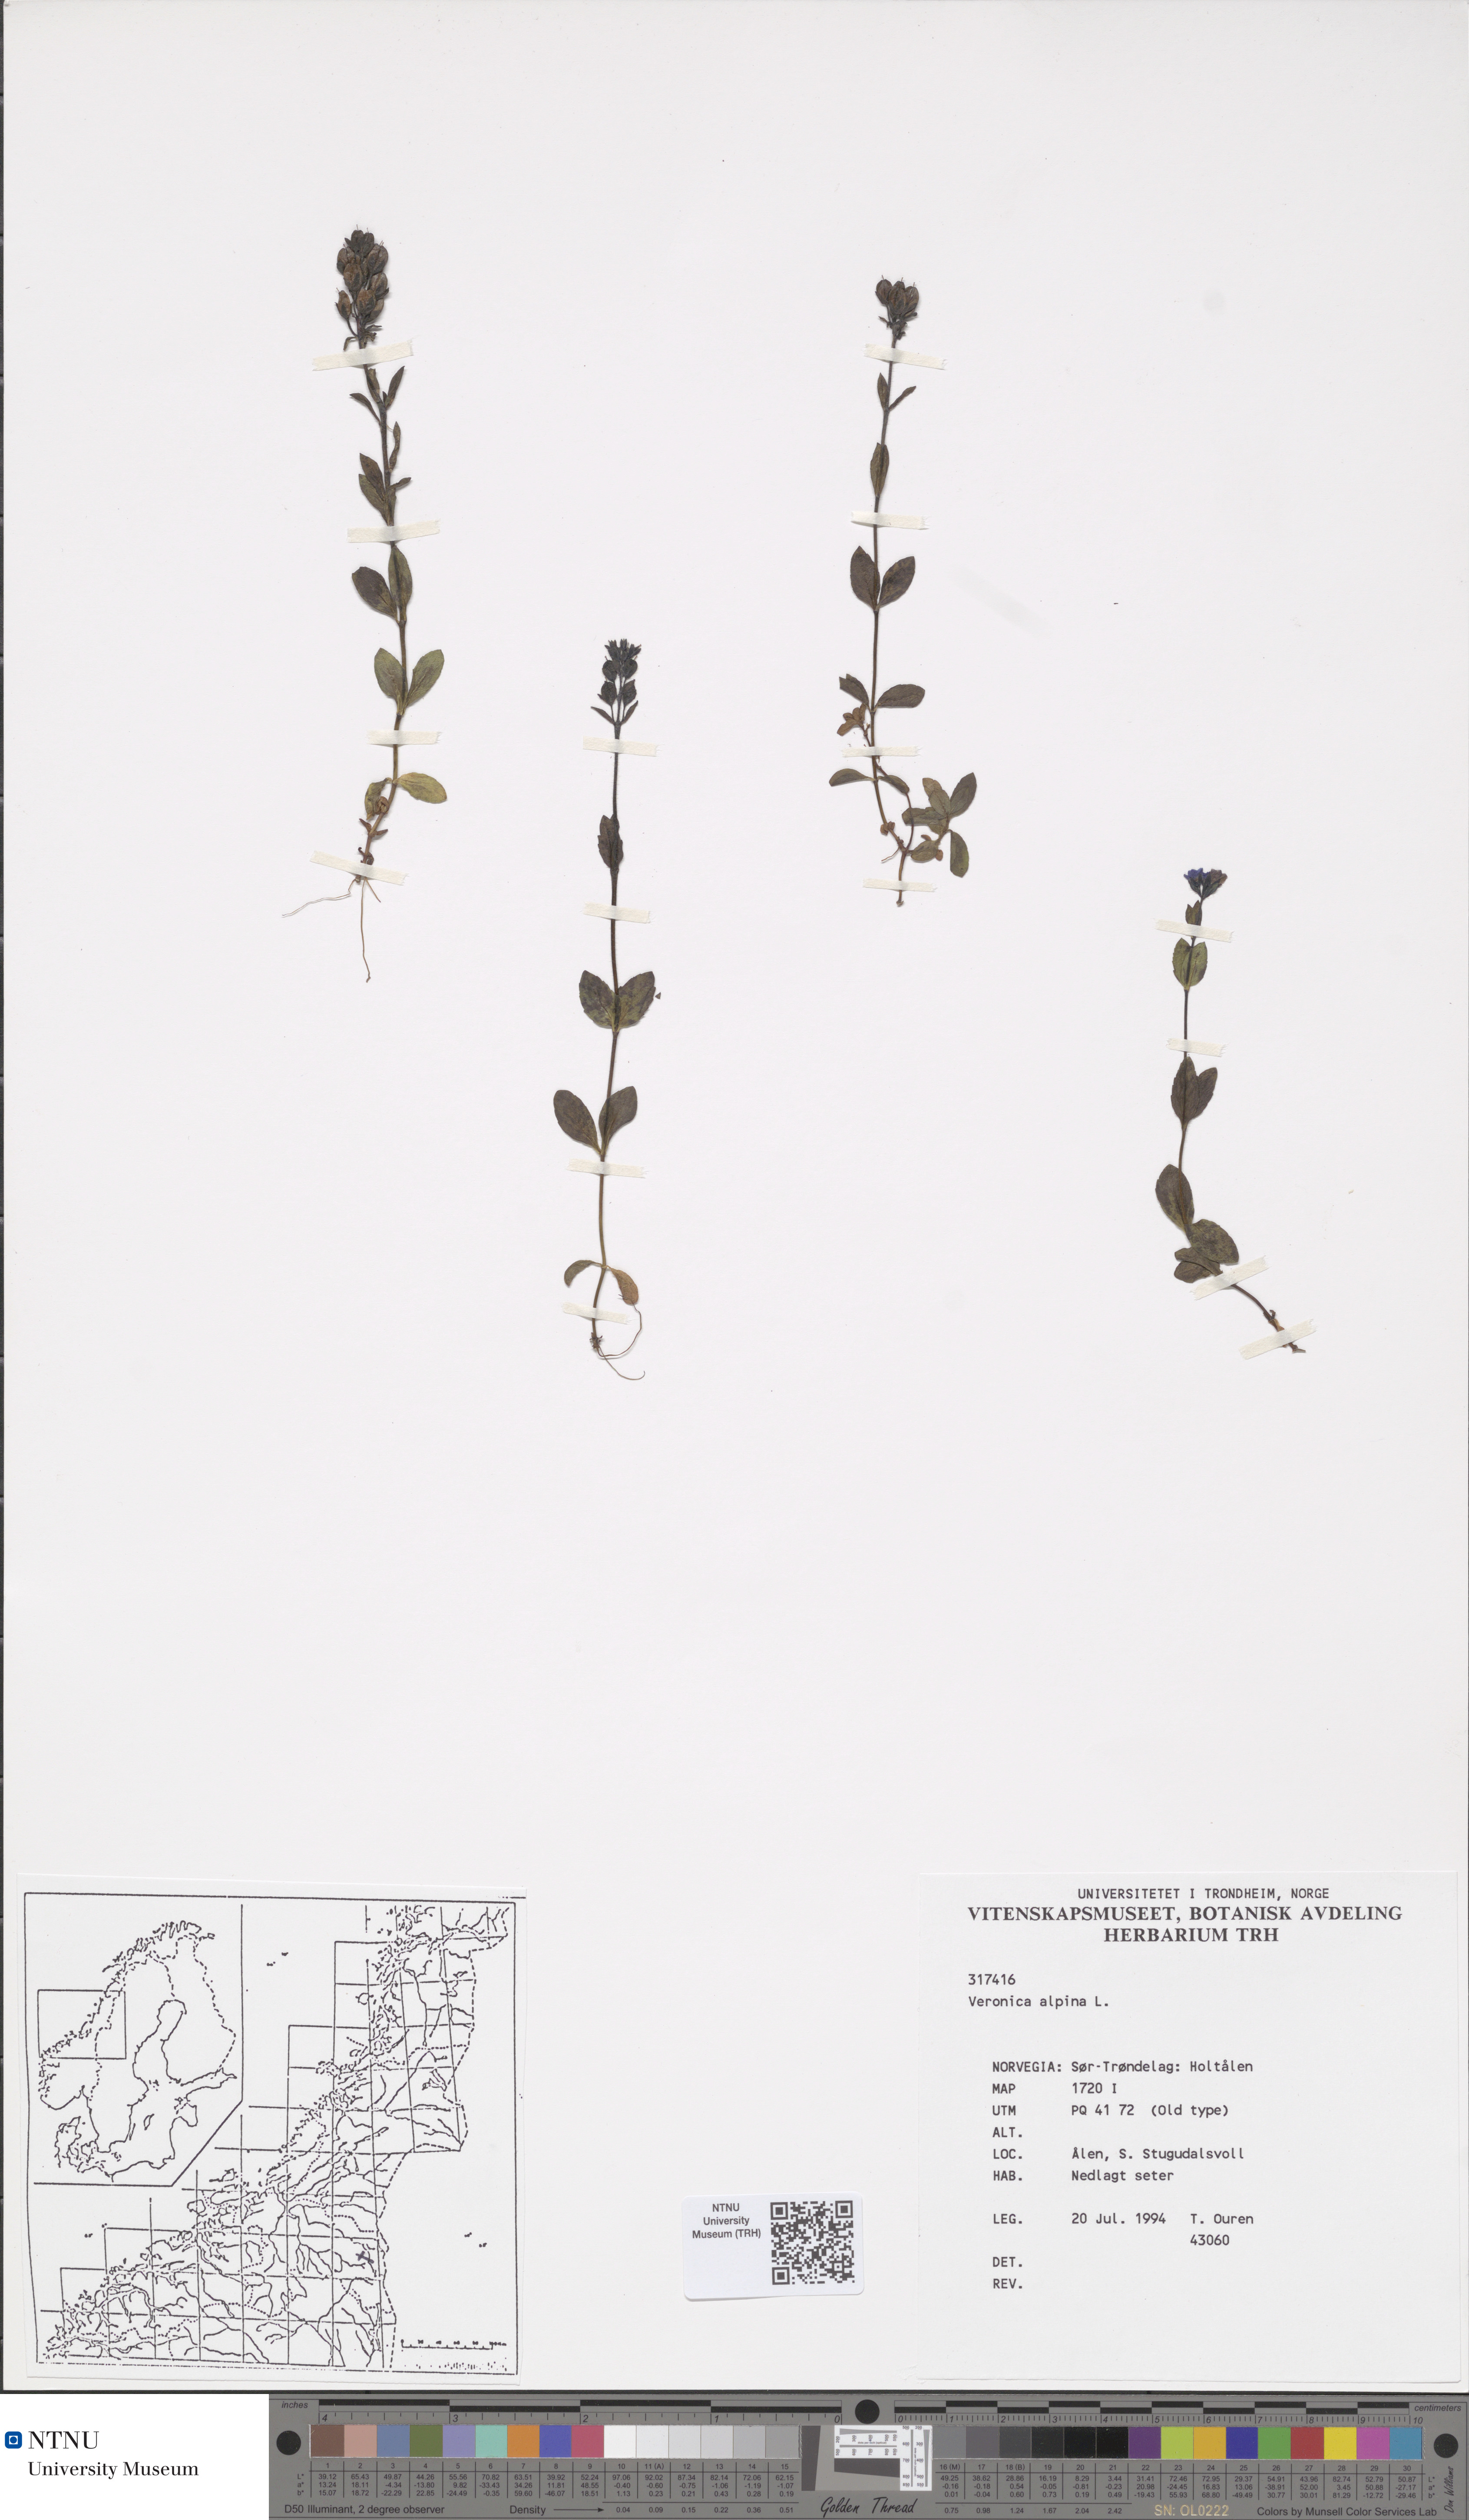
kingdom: Plantae
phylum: Tracheophyta
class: Magnoliopsida
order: Lamiales
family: Plantaginaceae
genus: Veronica
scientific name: Veronica alpina
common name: Alpine speedwell
